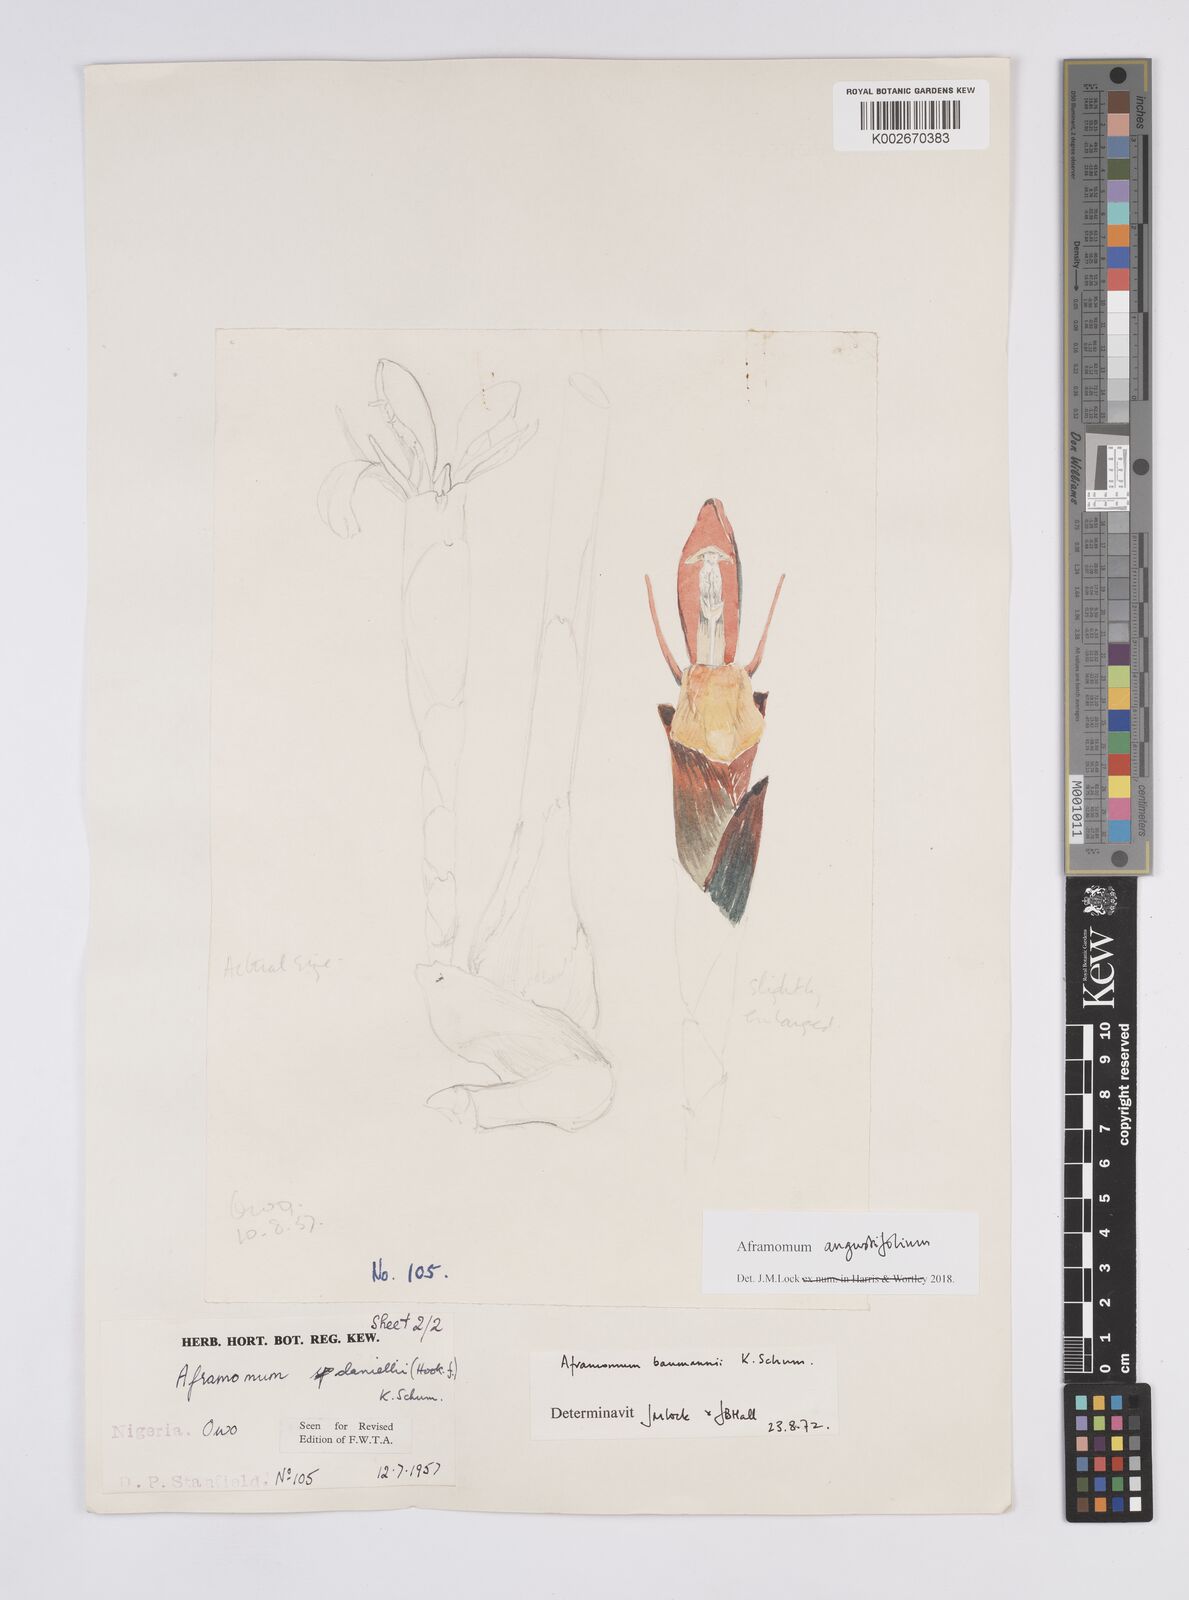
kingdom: Plantae
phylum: Tracheophyta
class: Liliopsida
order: Zingiberales
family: Zingiberaceae
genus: Aframomum
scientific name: Aframomum angustifolium
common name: Guinea grains
